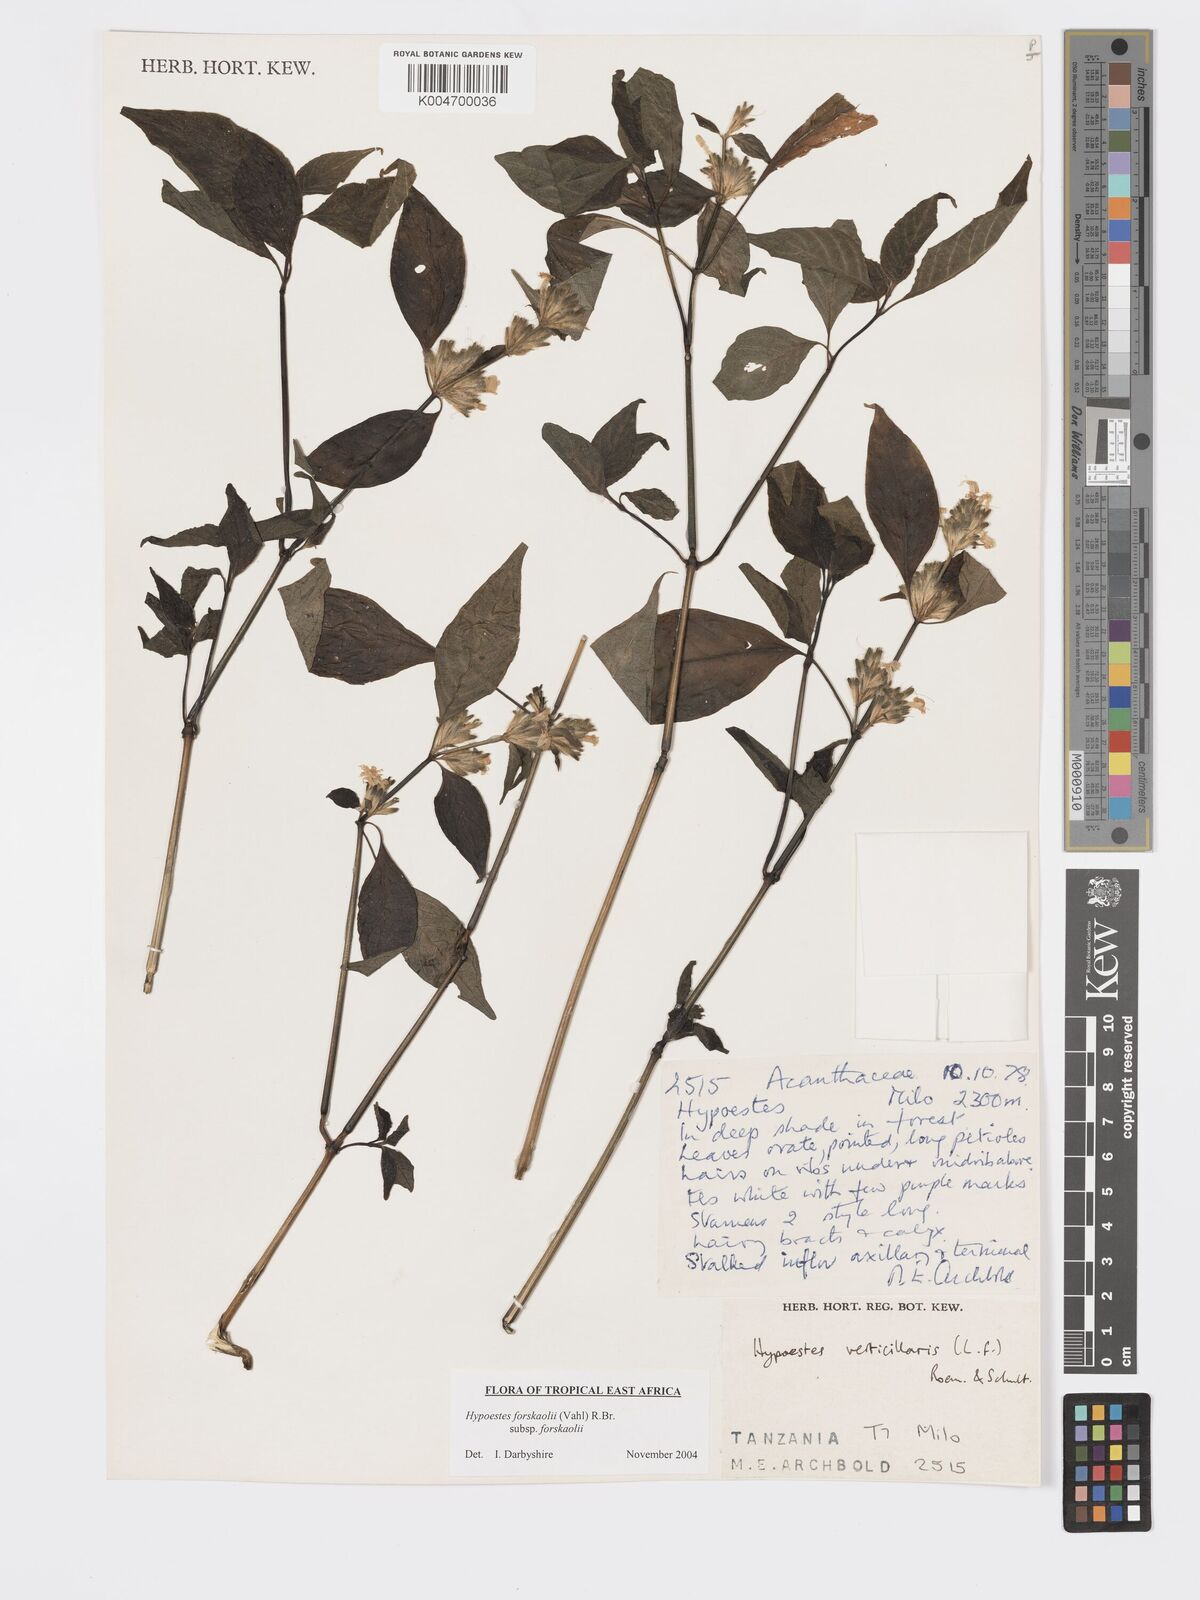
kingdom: Plantae
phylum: Tracheophyta
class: Magnoliopsida
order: Lamiales
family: Acanthaceae
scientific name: Acanthaceae
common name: Acanthaceae
